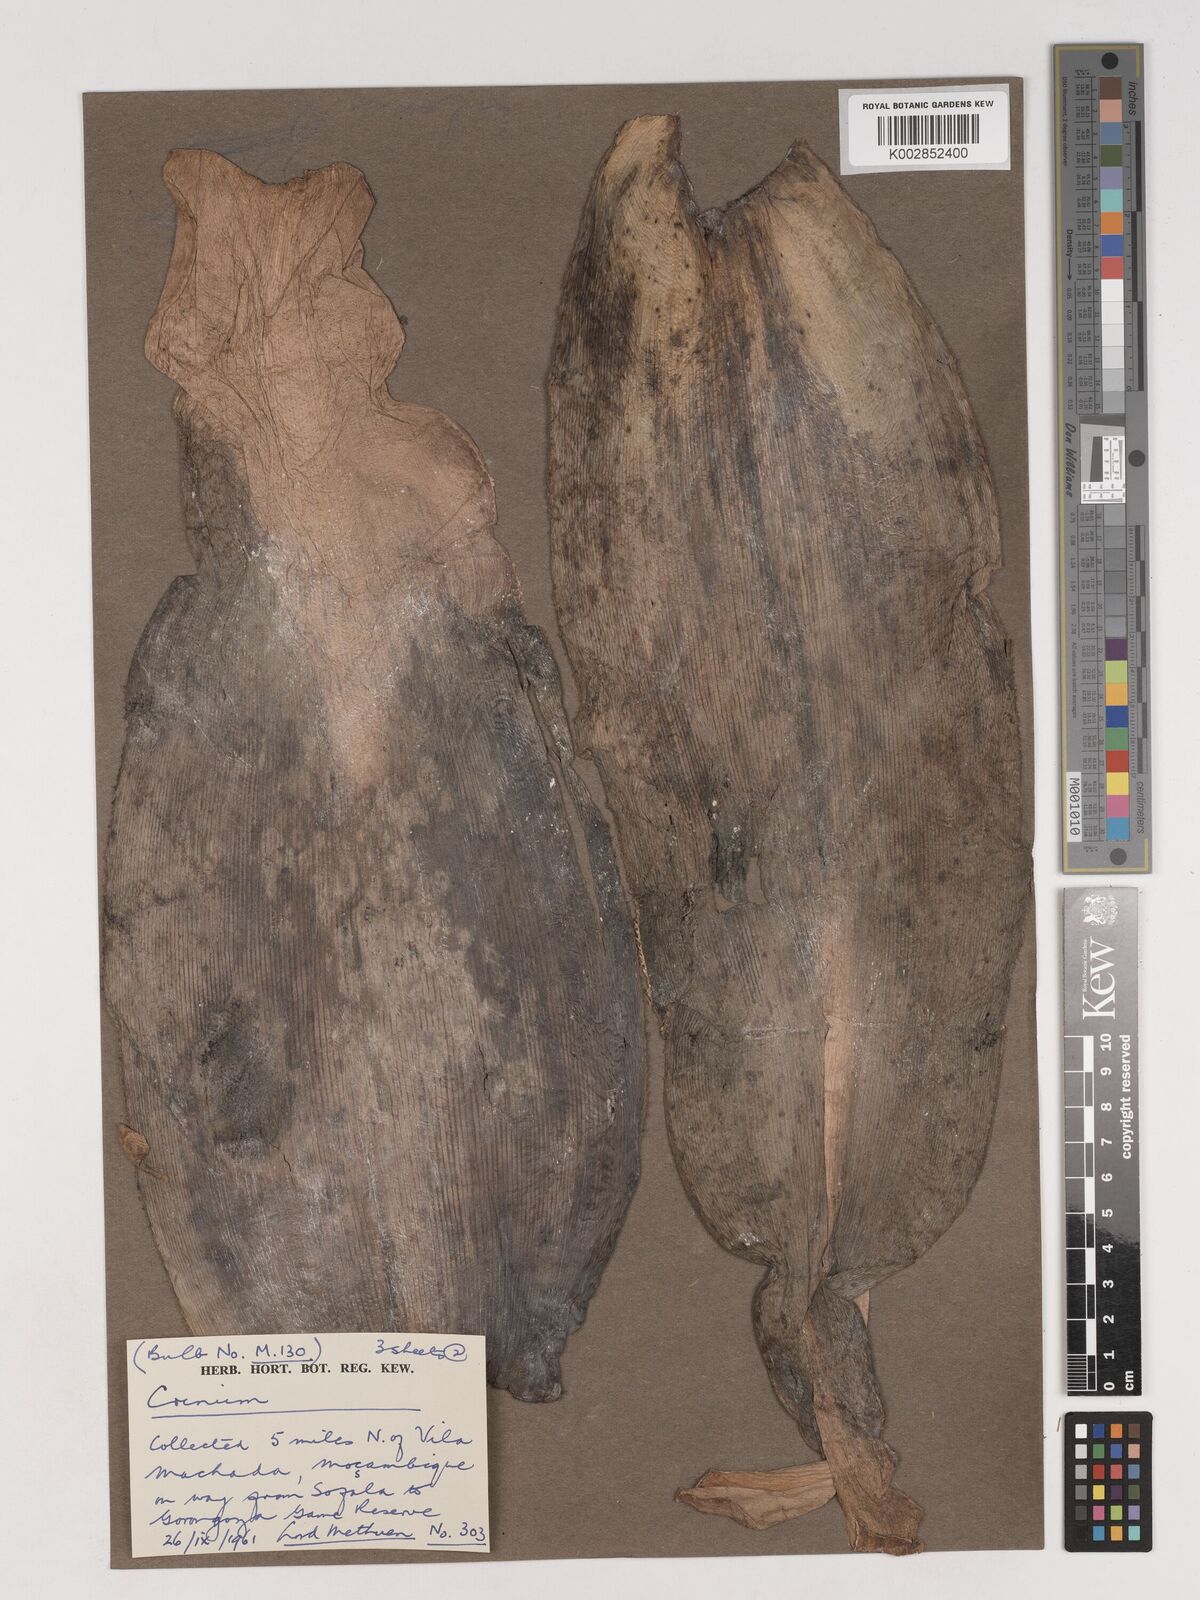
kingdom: Plantae
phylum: Tracheophyta
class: Liliopsida
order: Asparagales
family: Amaryllidaceae
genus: Crinum
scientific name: Crinum stuhlmannii
